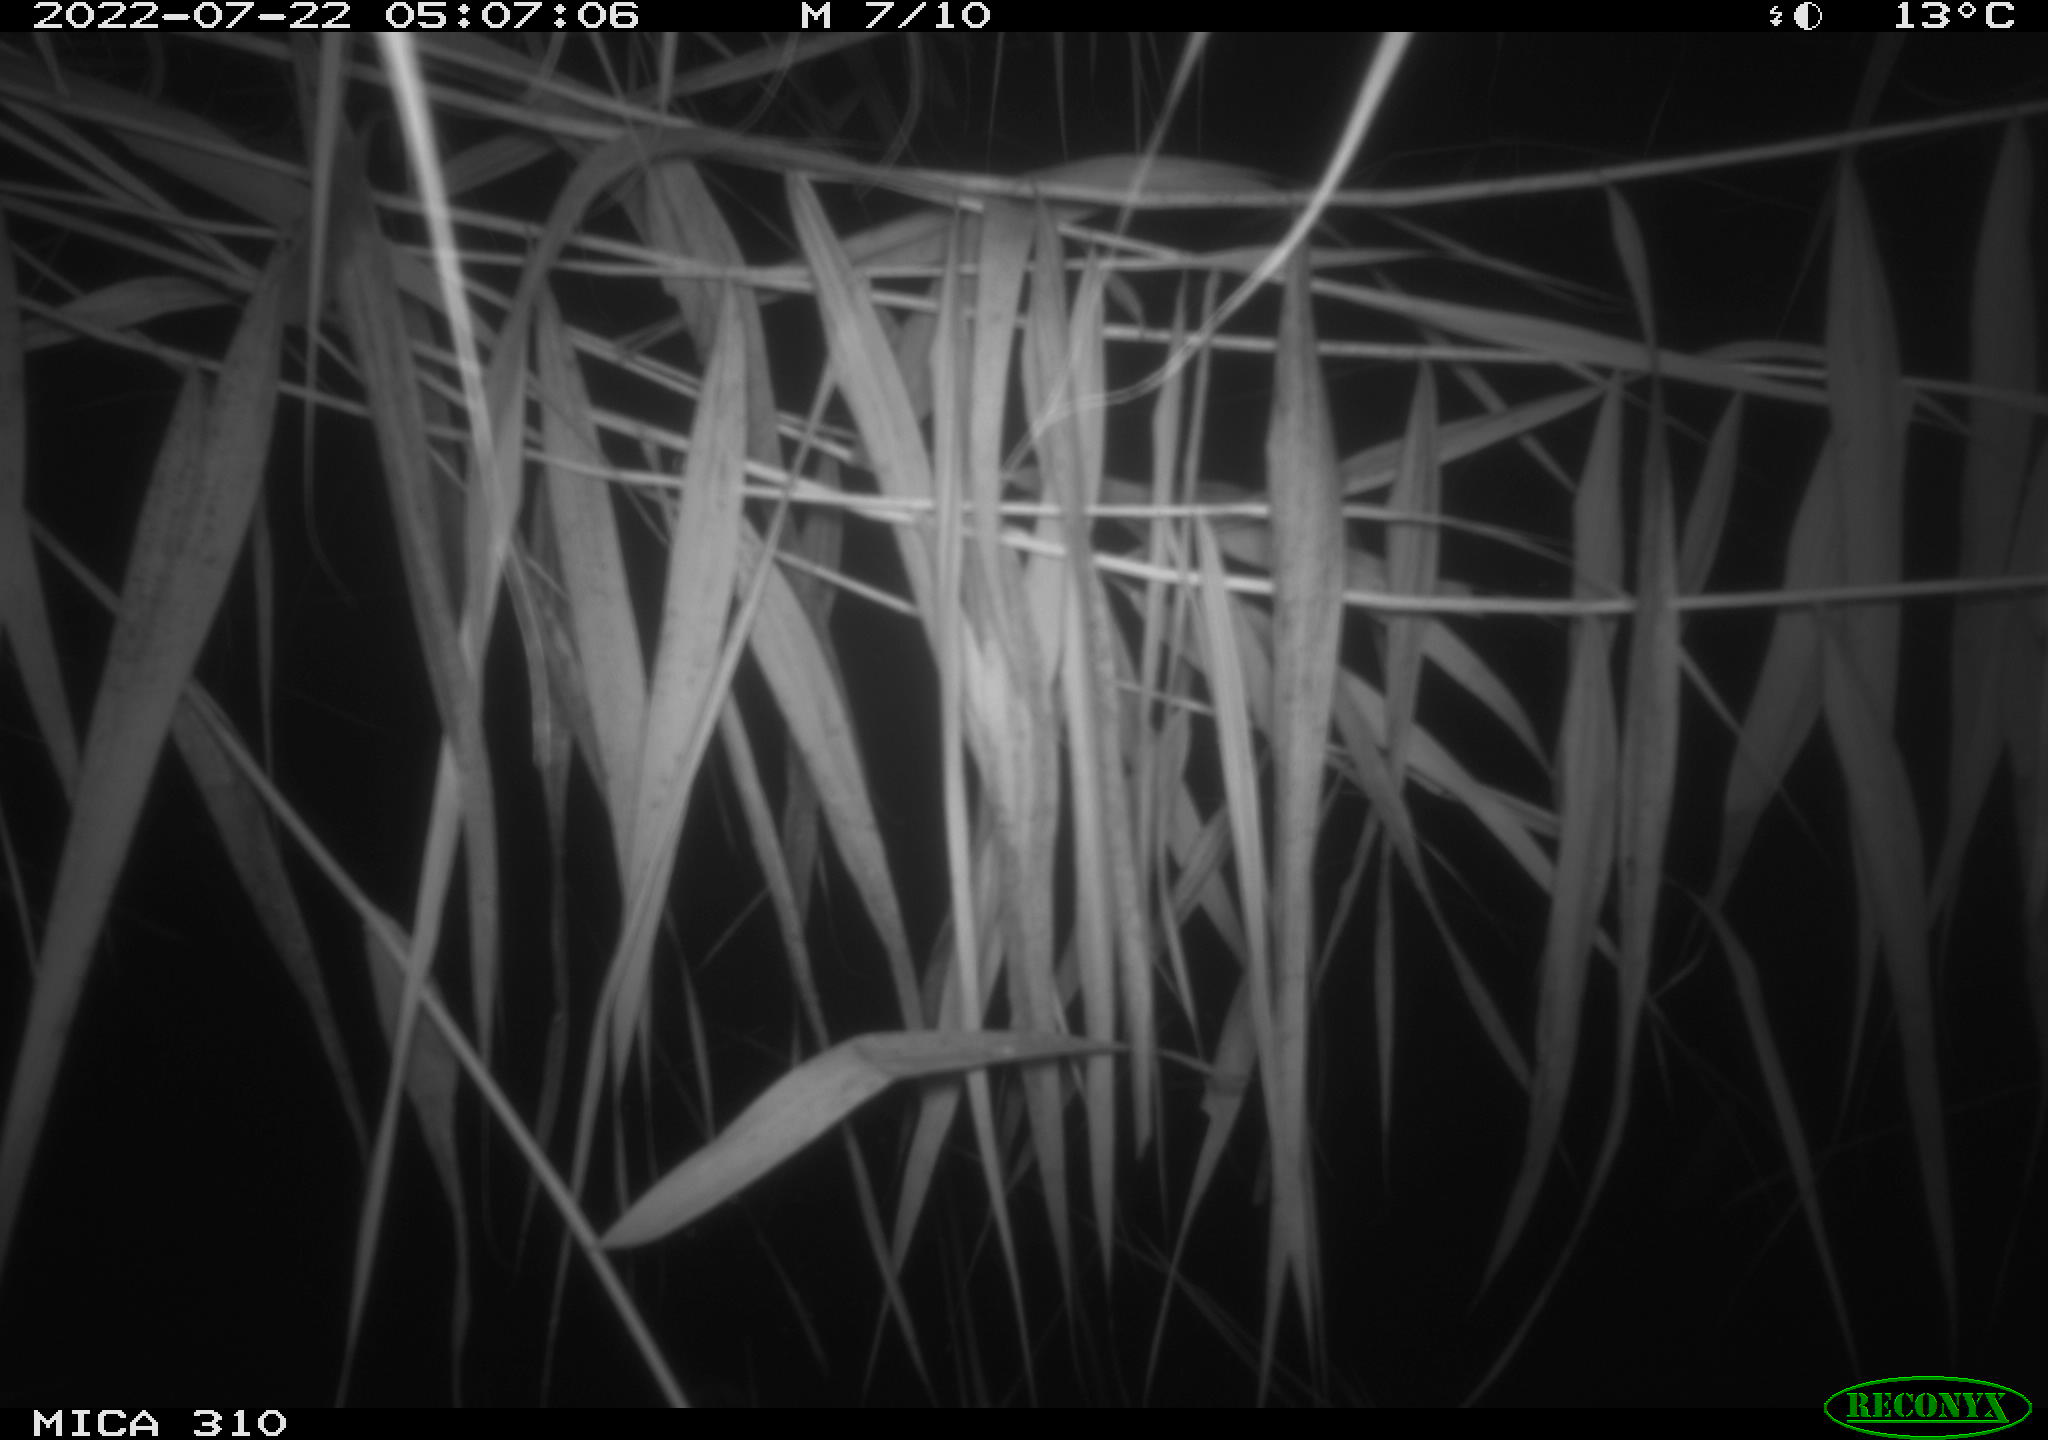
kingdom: Animalia
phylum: Chordata
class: Aves
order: Anseriformes
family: Anatidae
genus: Anas
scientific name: Anas platyrhynchos
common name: Mallard
